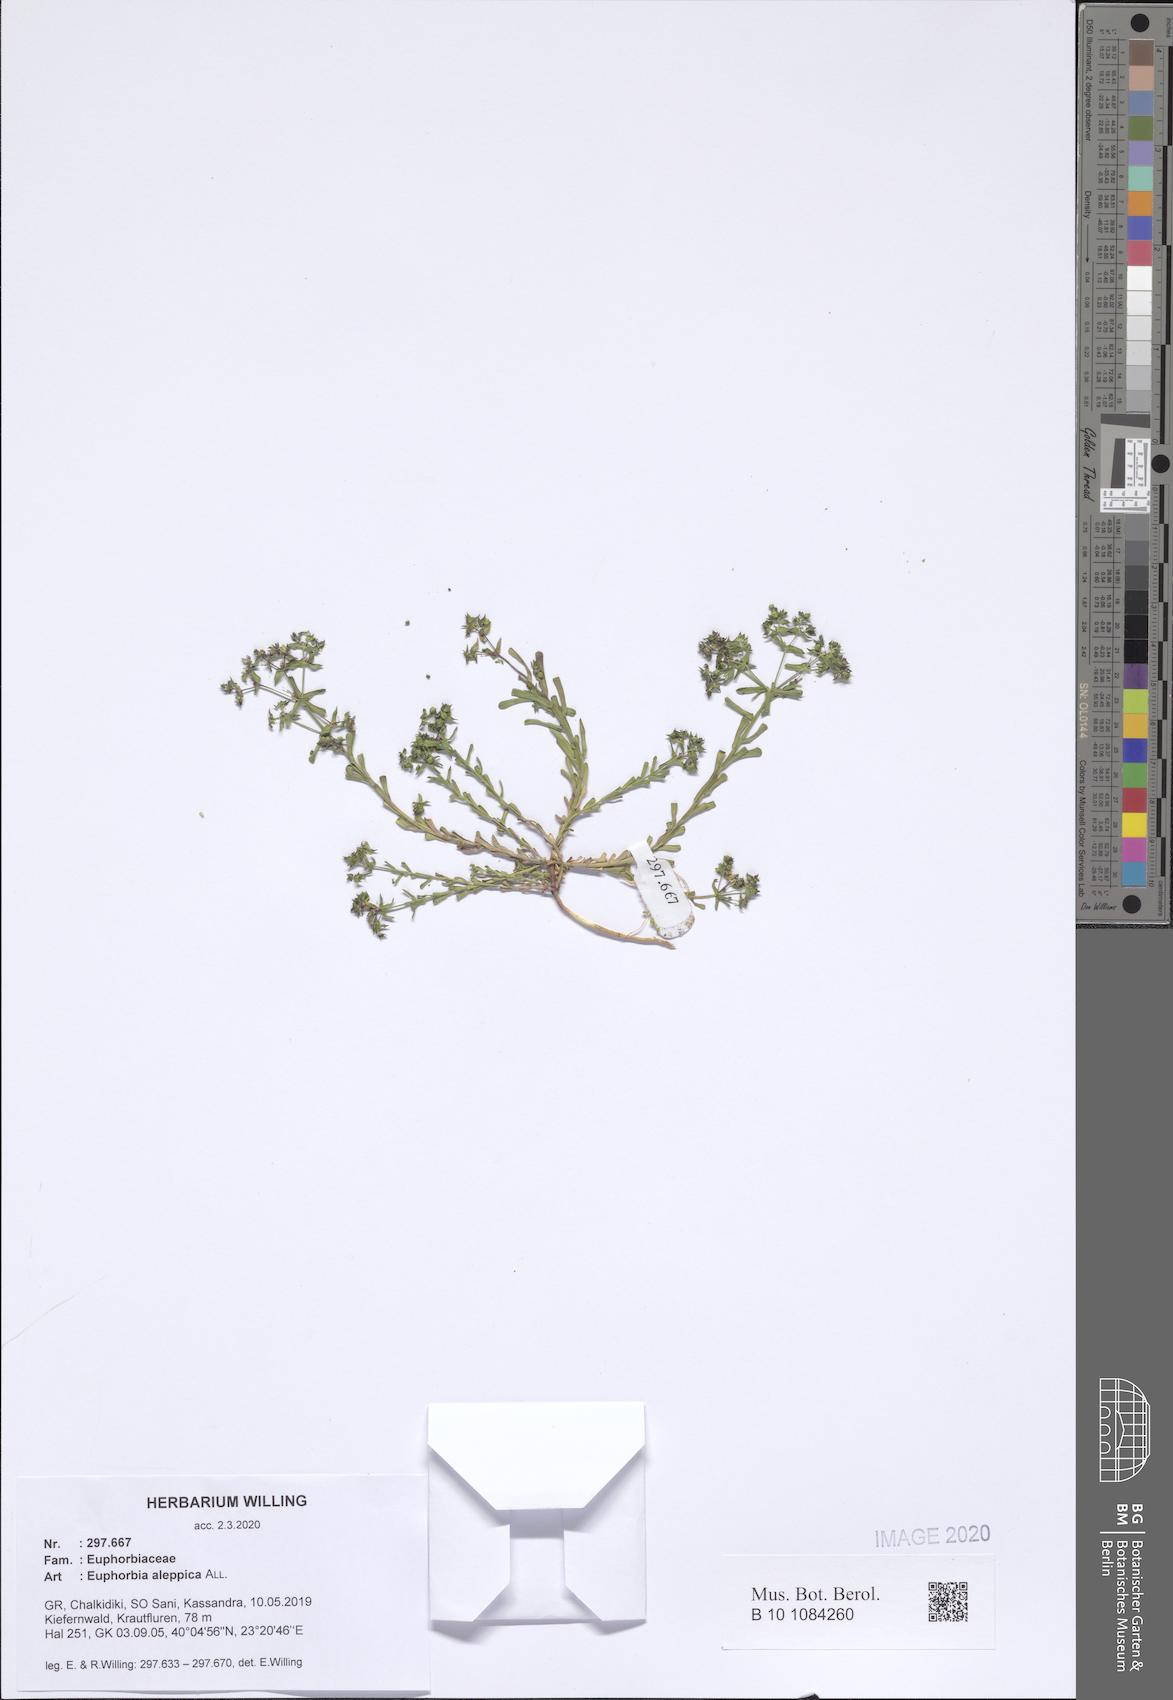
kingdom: Plantae
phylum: Tracheophyta
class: Magnoliopsida
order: Malpighiales
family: Euphorbiaceae
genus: Euphorbia
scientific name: Euphorbia aleppica
